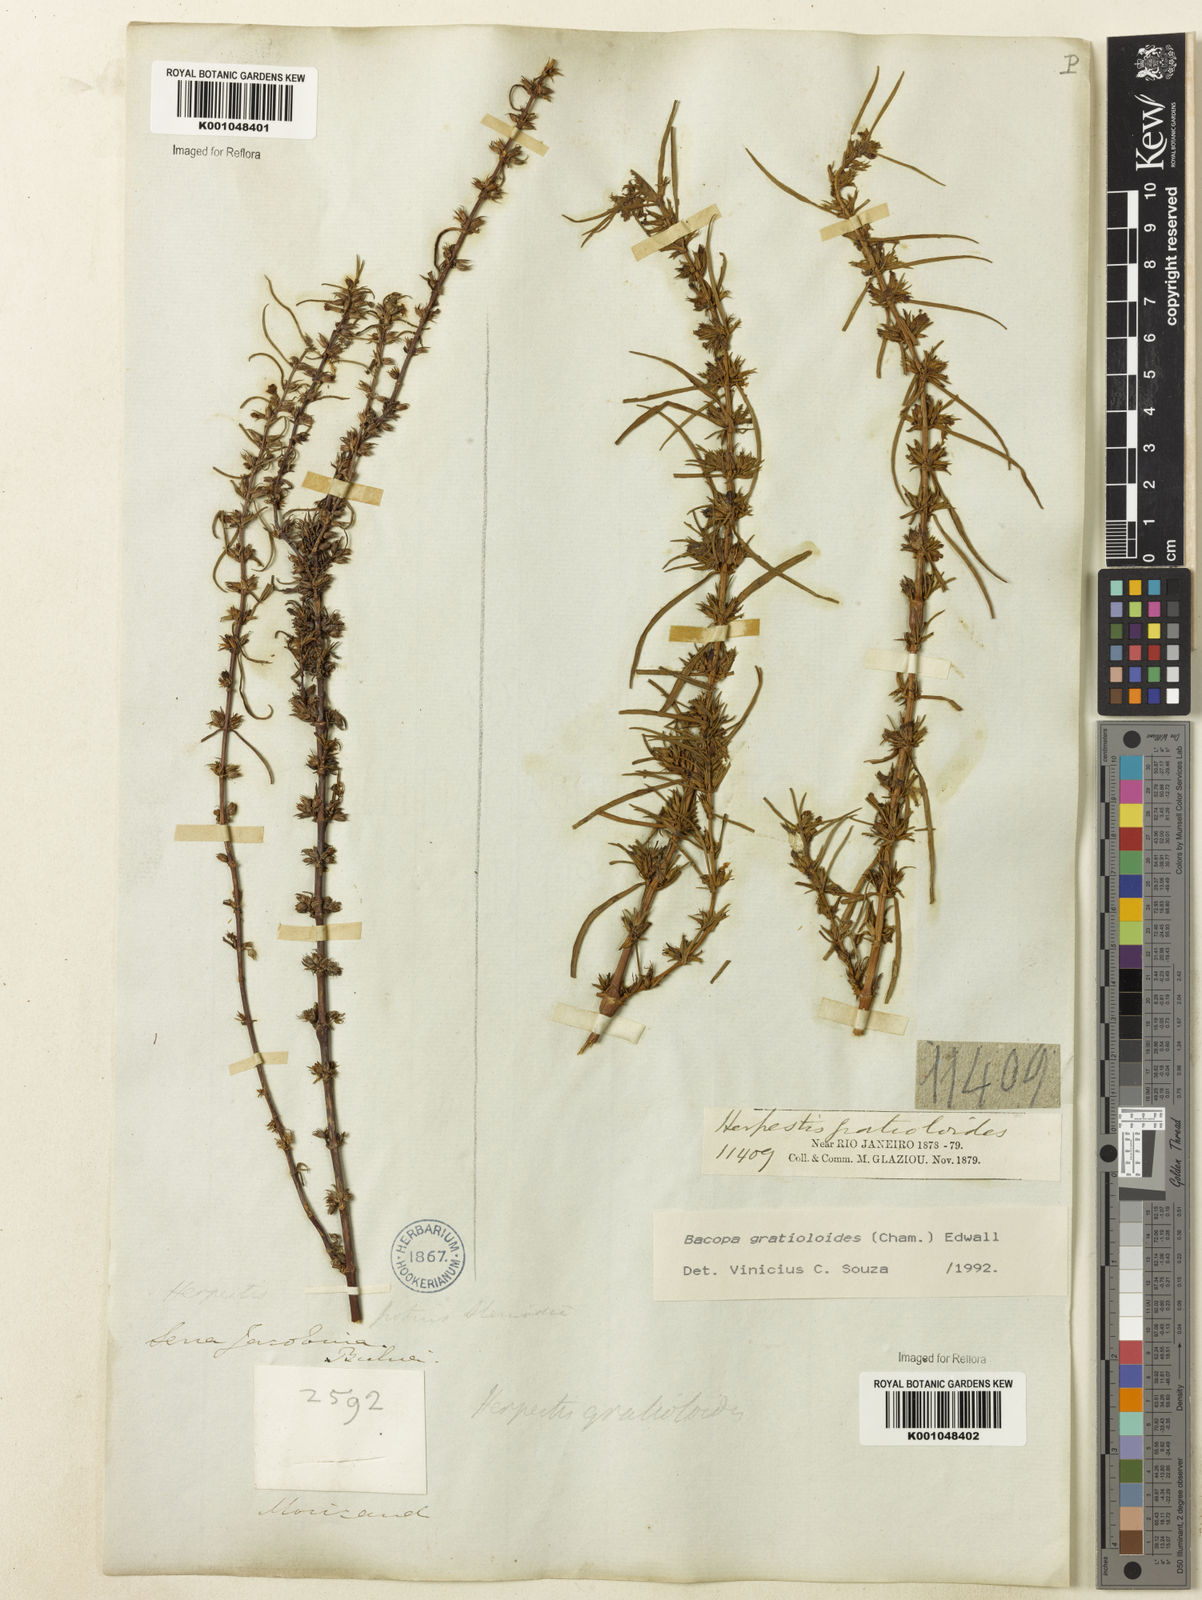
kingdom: Plantae
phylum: Tracheophyta
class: Magnoliopsida
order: Lamiales
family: Plantaginaceae
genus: Bacopa
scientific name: Bacopa
